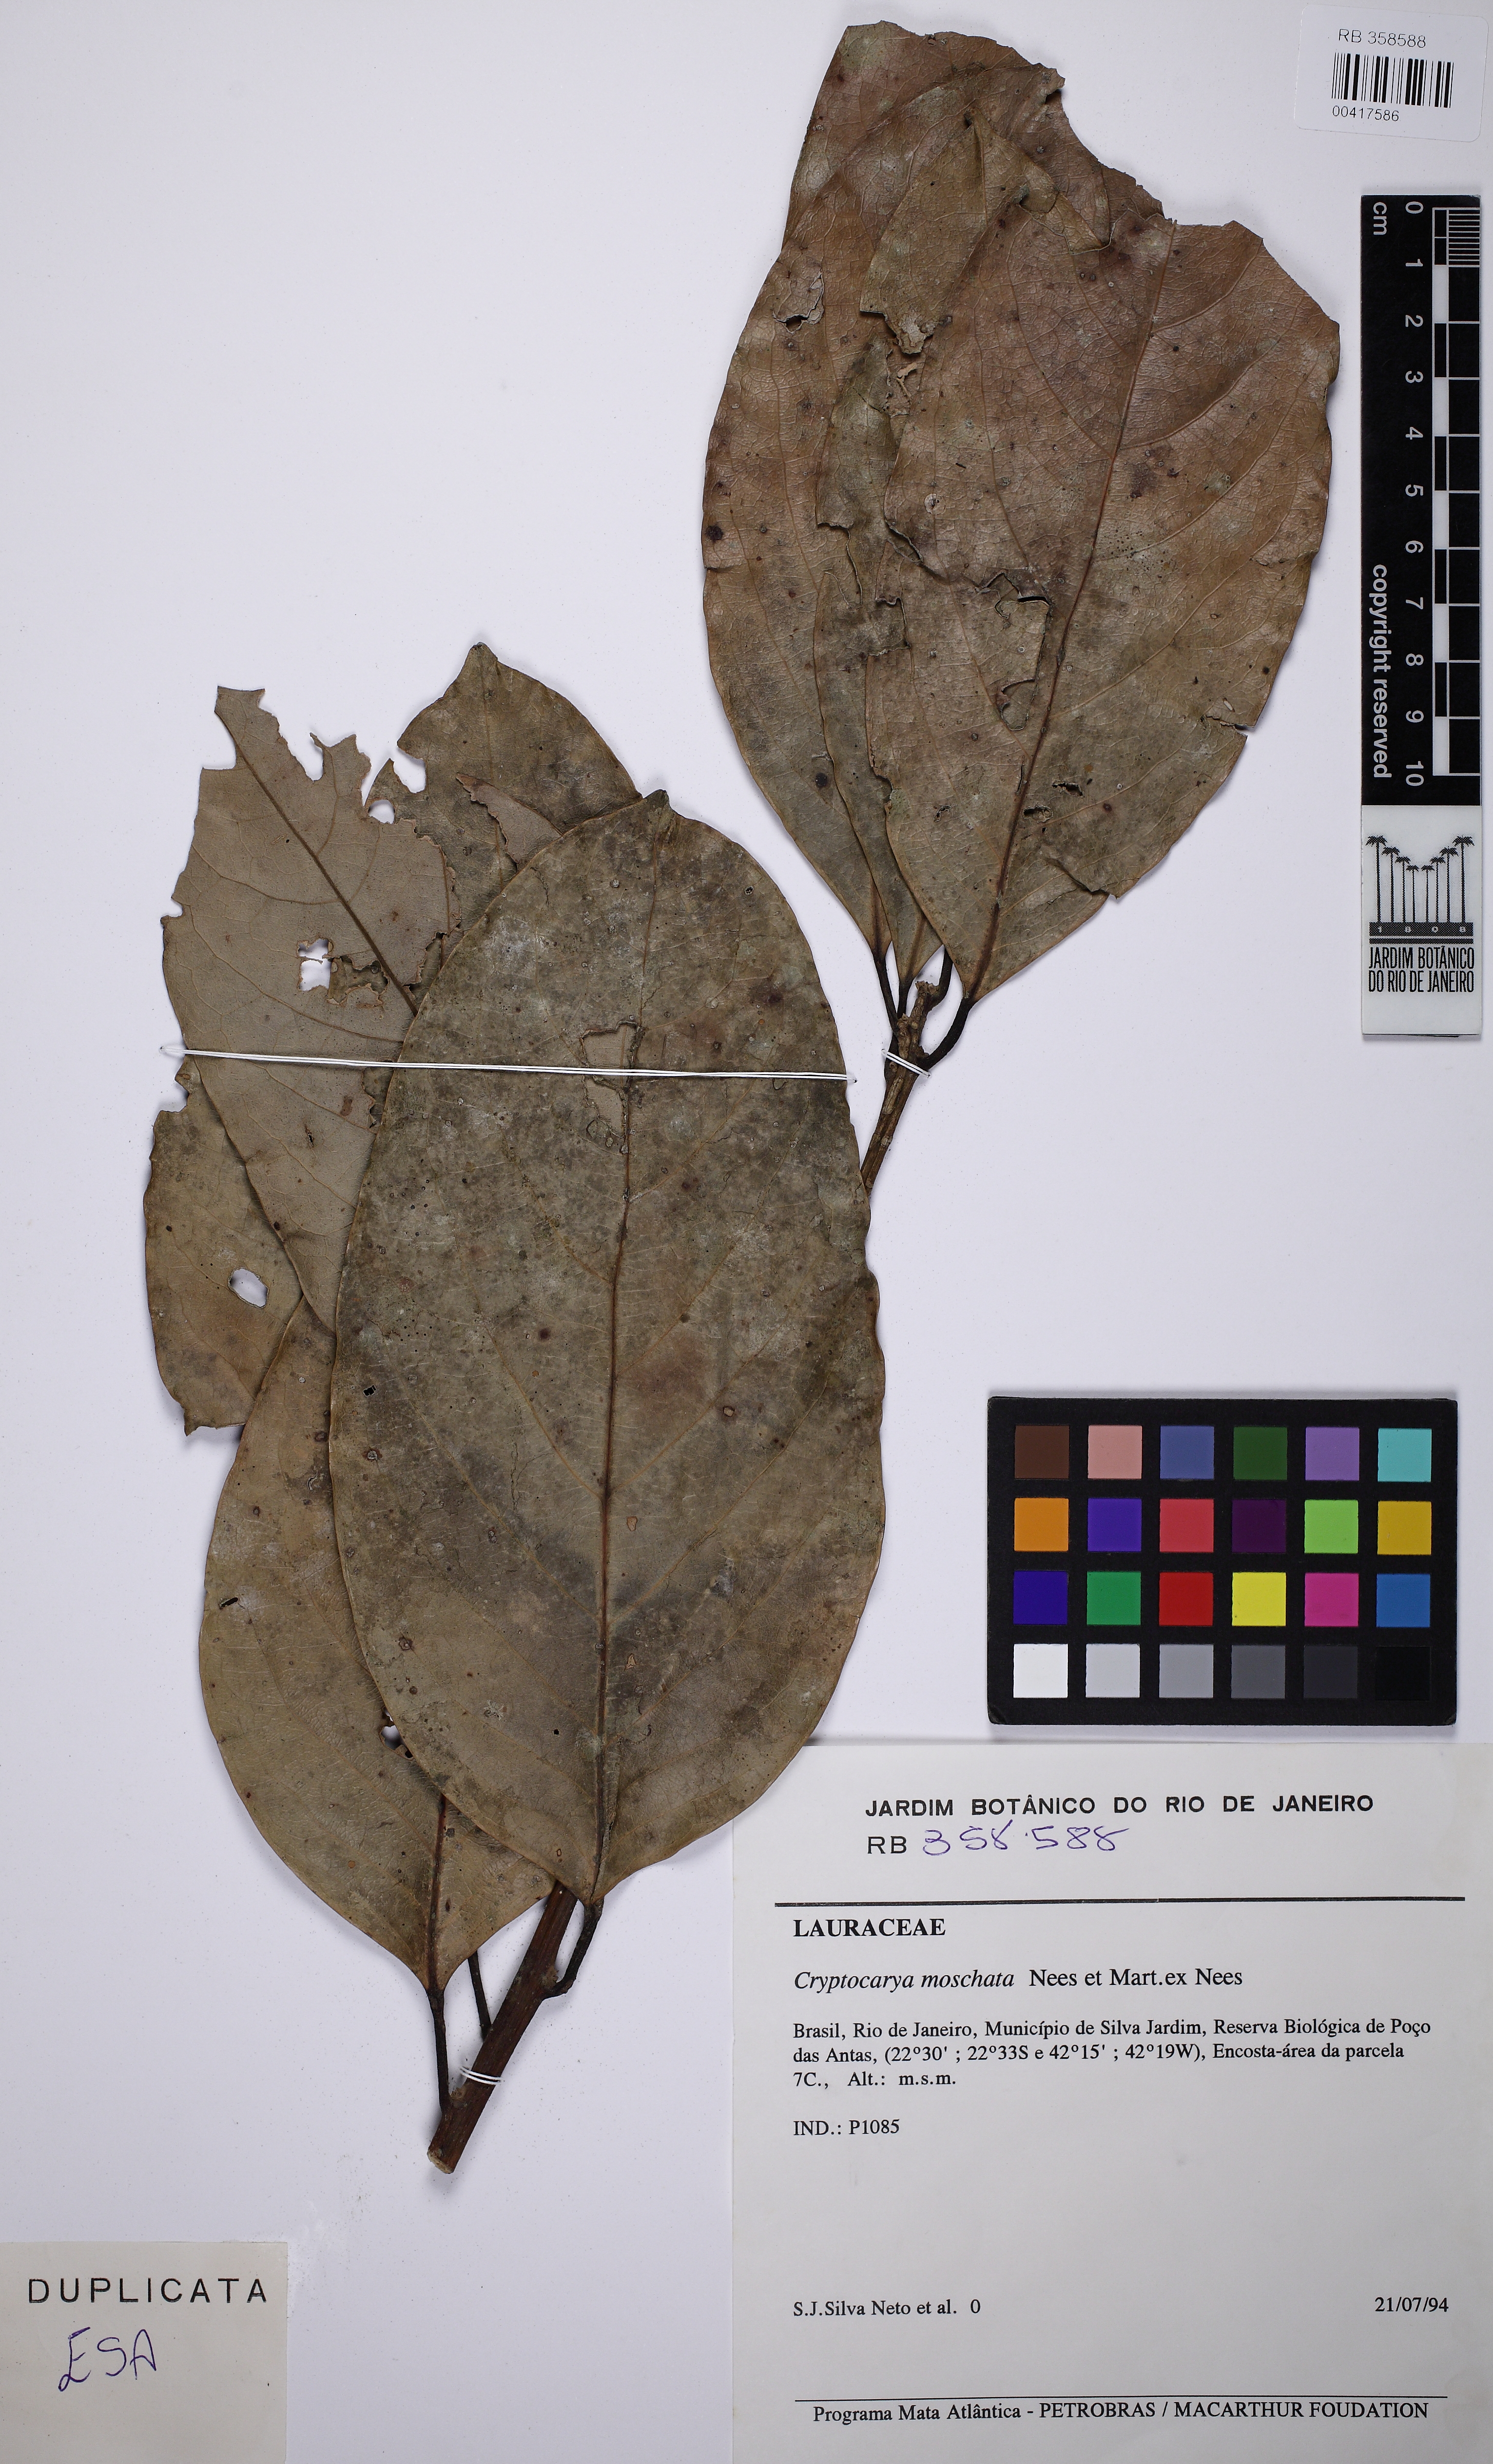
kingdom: Plantae
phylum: Tracheophyta
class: Magnoliopsida
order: Laurales
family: Lauraceae
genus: Cryptocarya
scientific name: Cryptocarya moschata
